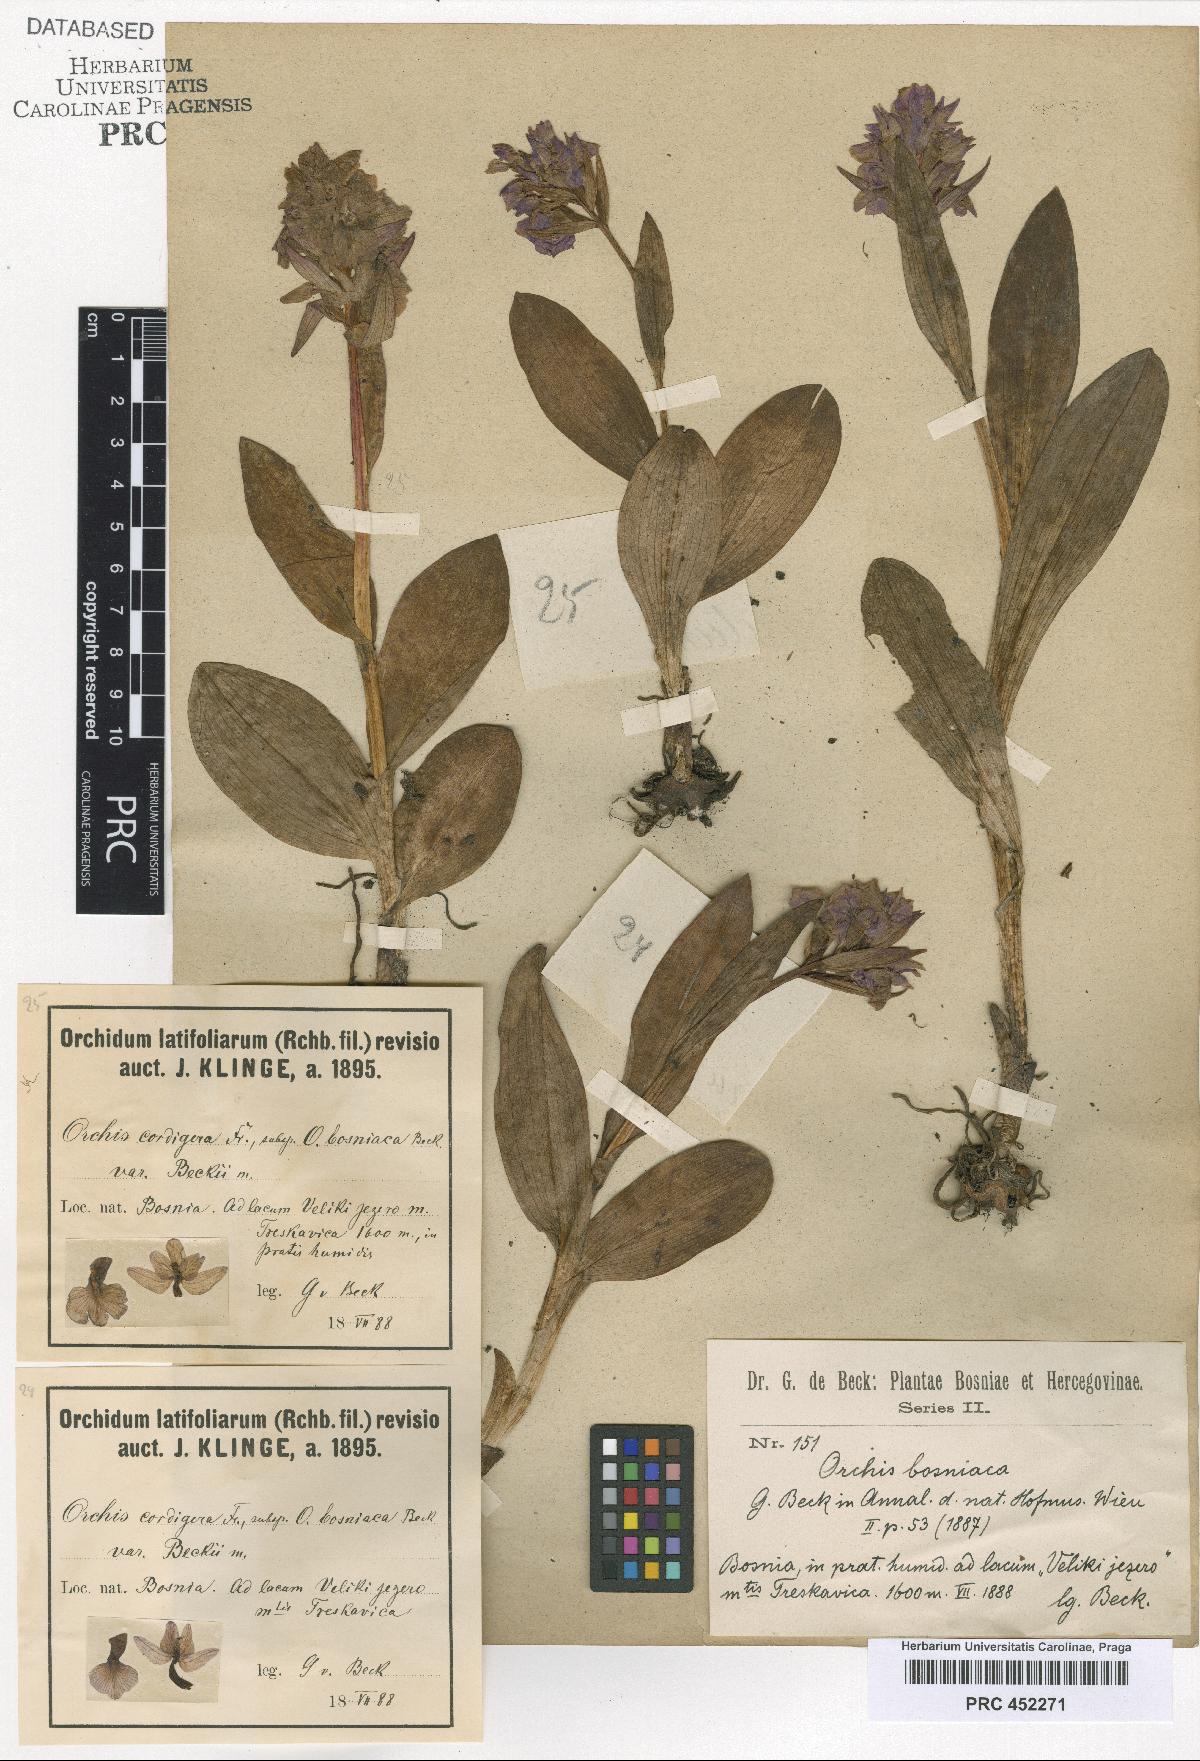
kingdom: Plantae
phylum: Tracheophyta
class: Liliopsida
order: Asparagales
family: Orchidaceae
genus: Dactylorhiza
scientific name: Dactylorhiza majalis
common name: Marsh orchid
